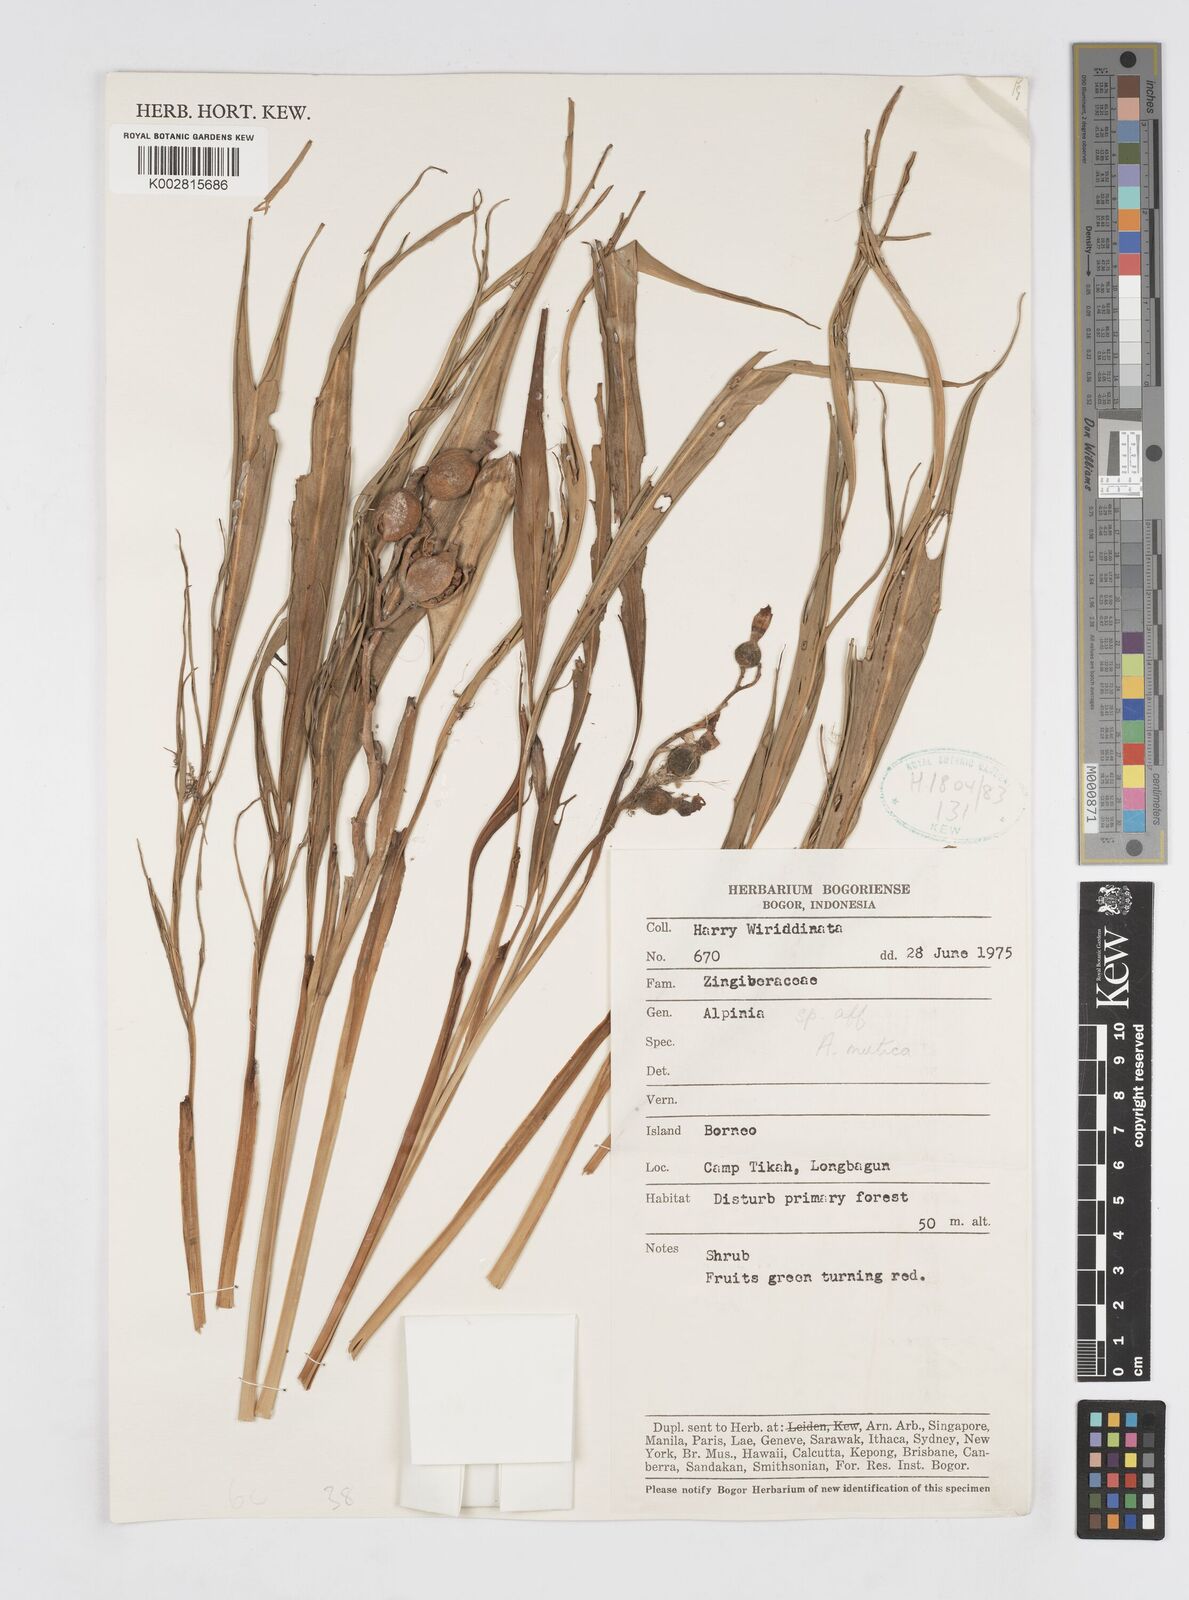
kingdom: Plantae
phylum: Tracheophyta
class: Liliopsida
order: Zingiberales
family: Zingiberaceae
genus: Alpinia
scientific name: Alpinia mutica
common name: Small shell ginger
